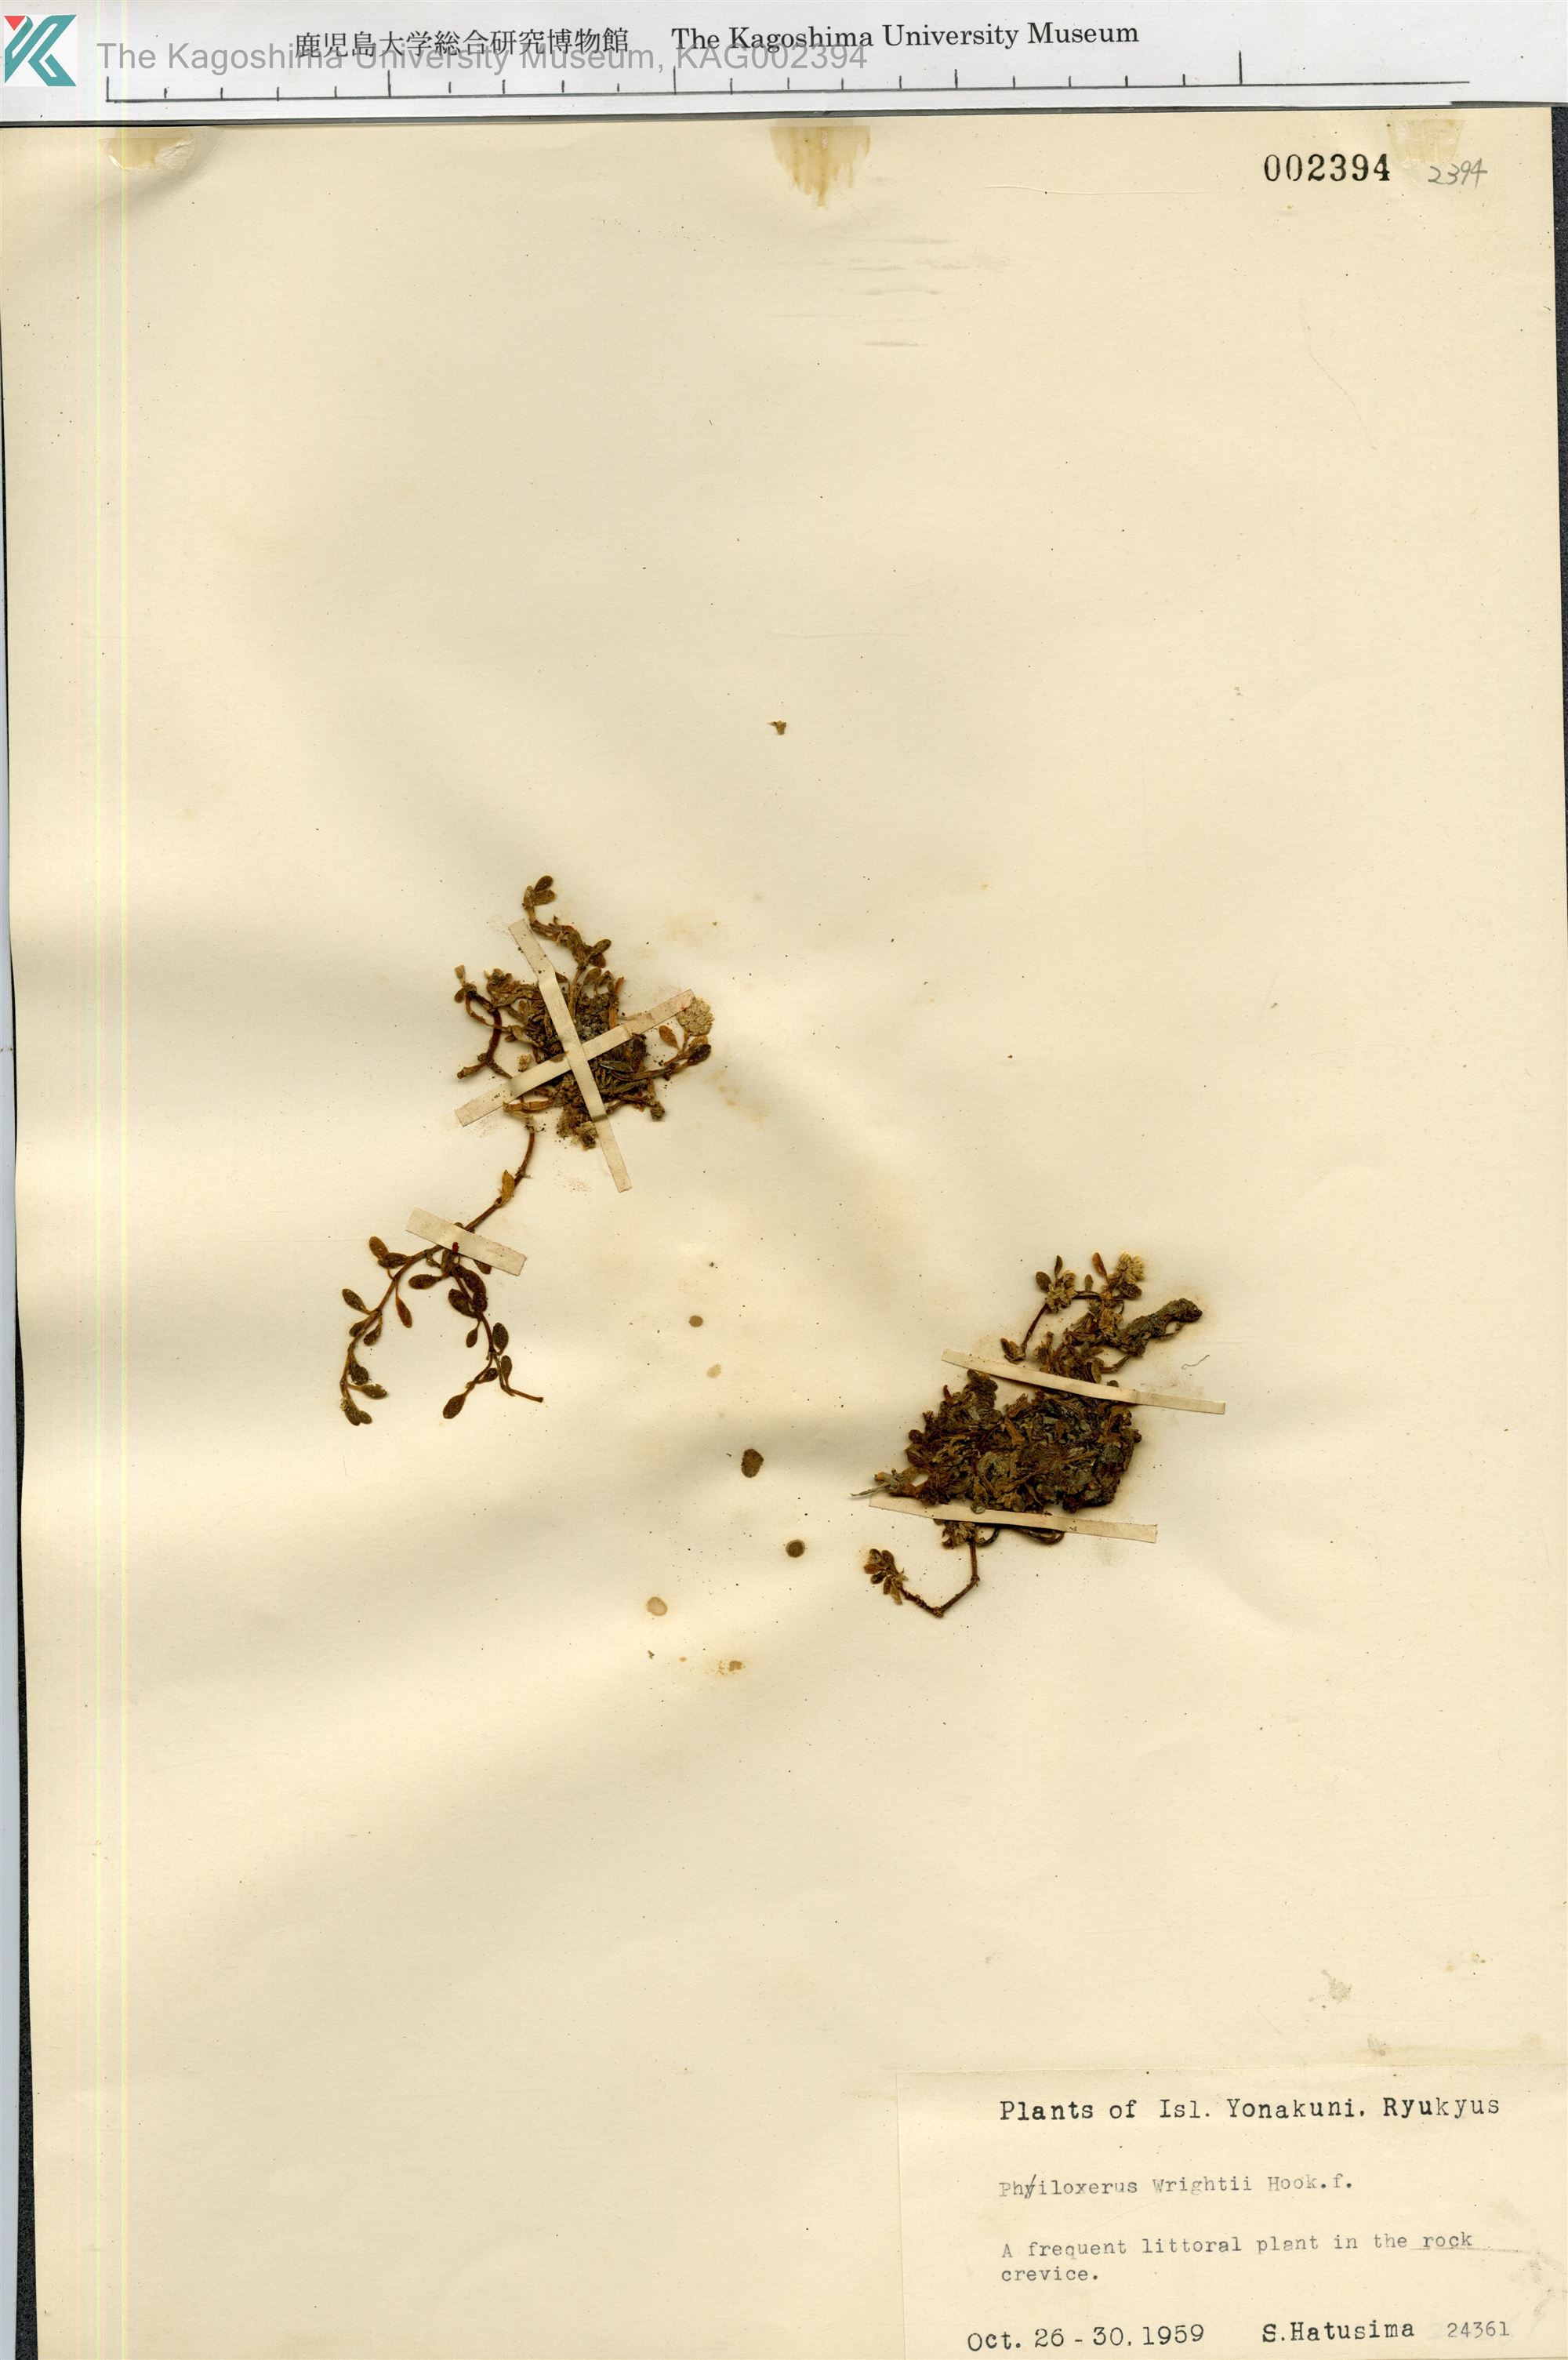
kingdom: Plantae
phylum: Tracheophyta
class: Magnoliopsida
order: Caryophyllales
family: Amaranthaceae
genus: Gomphrena
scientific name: Gomphrena wrightii
